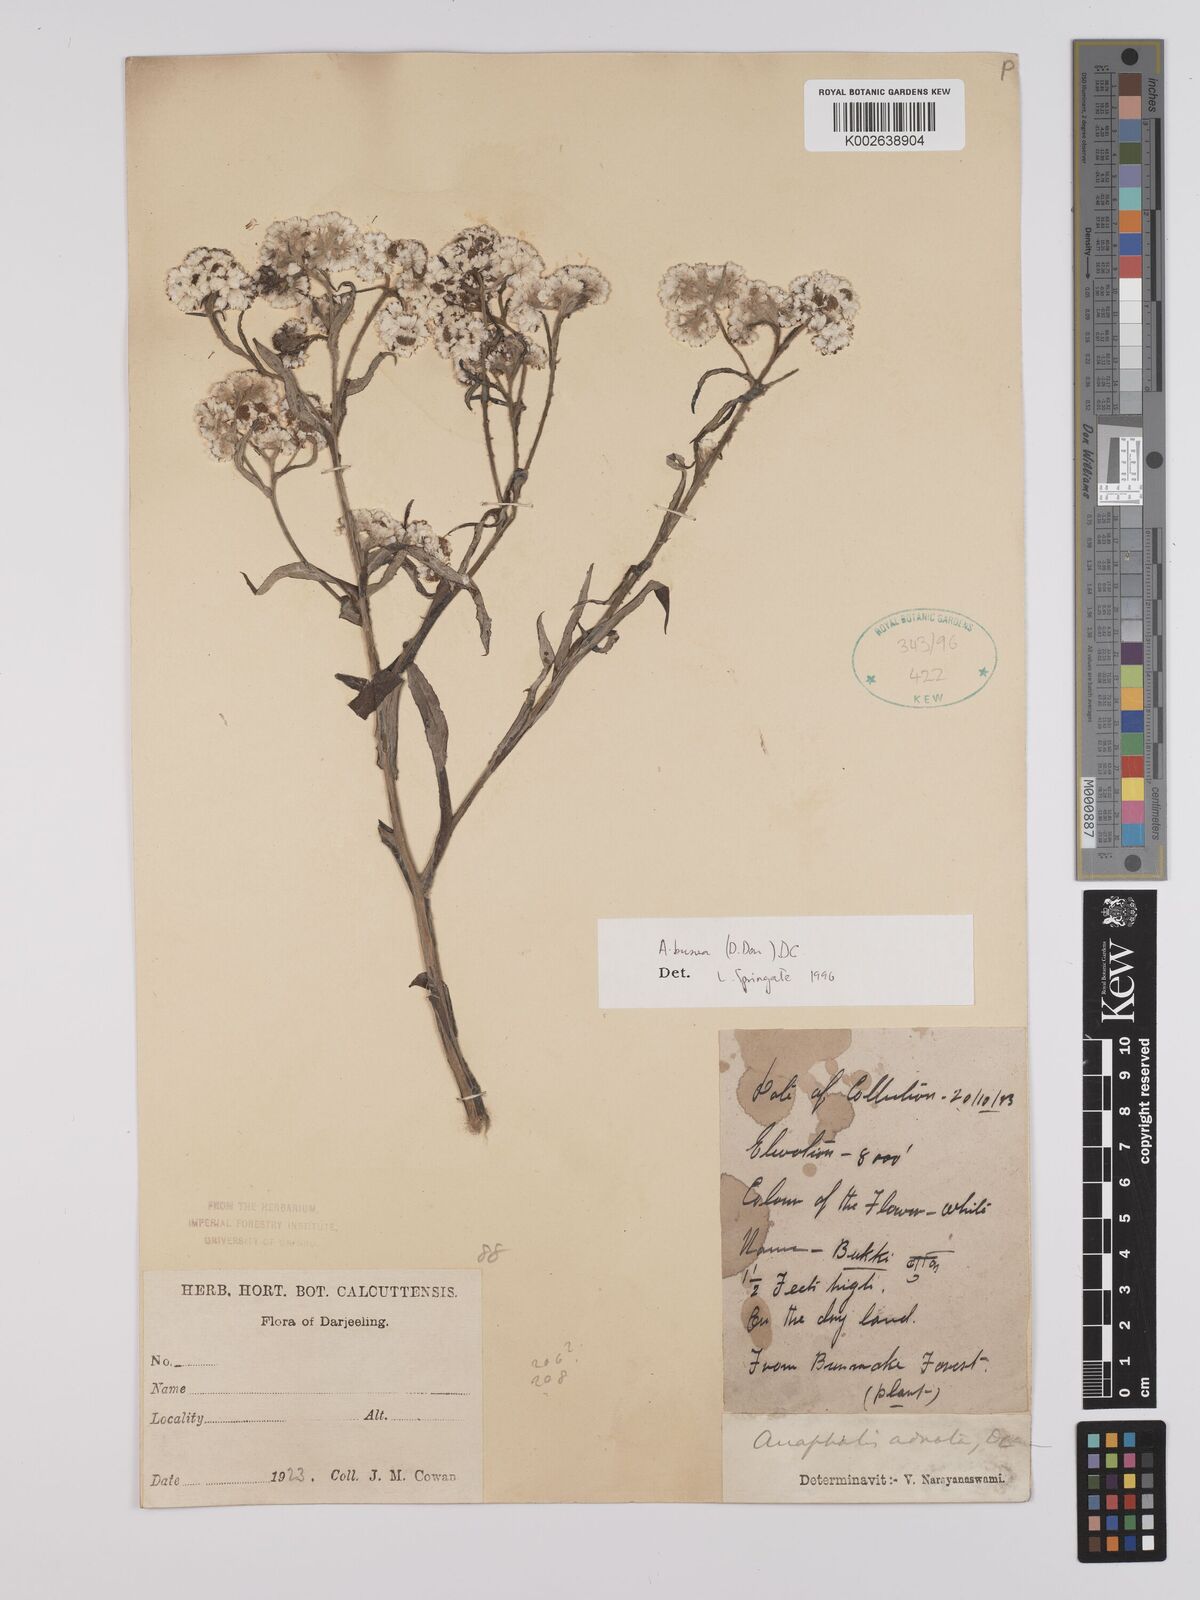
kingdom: Plantae
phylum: Tracheophyta
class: Magnoliopsida
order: Asterales
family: Asteraceae
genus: Anaphalis
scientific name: Anaphalis busua
